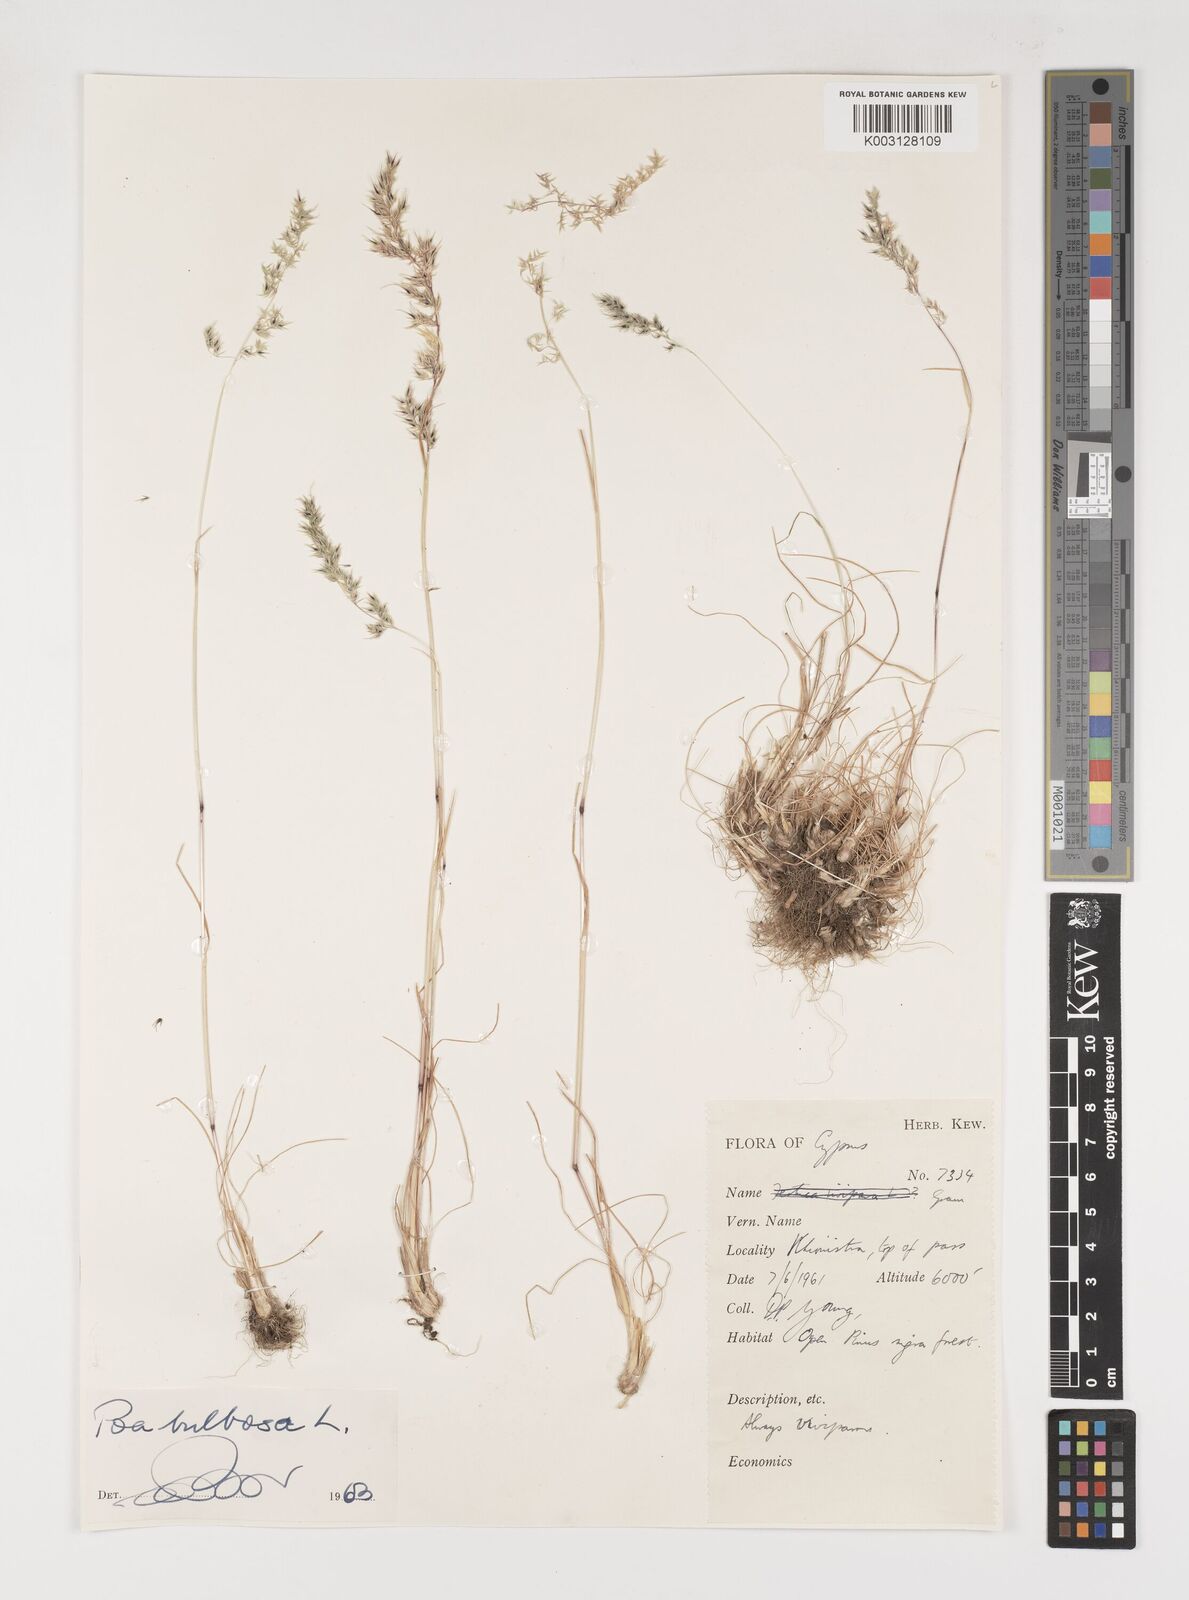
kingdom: Plantae
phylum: Tracheophyta
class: Liliopsida
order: Poales
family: Poaceae
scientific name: Poaceae
